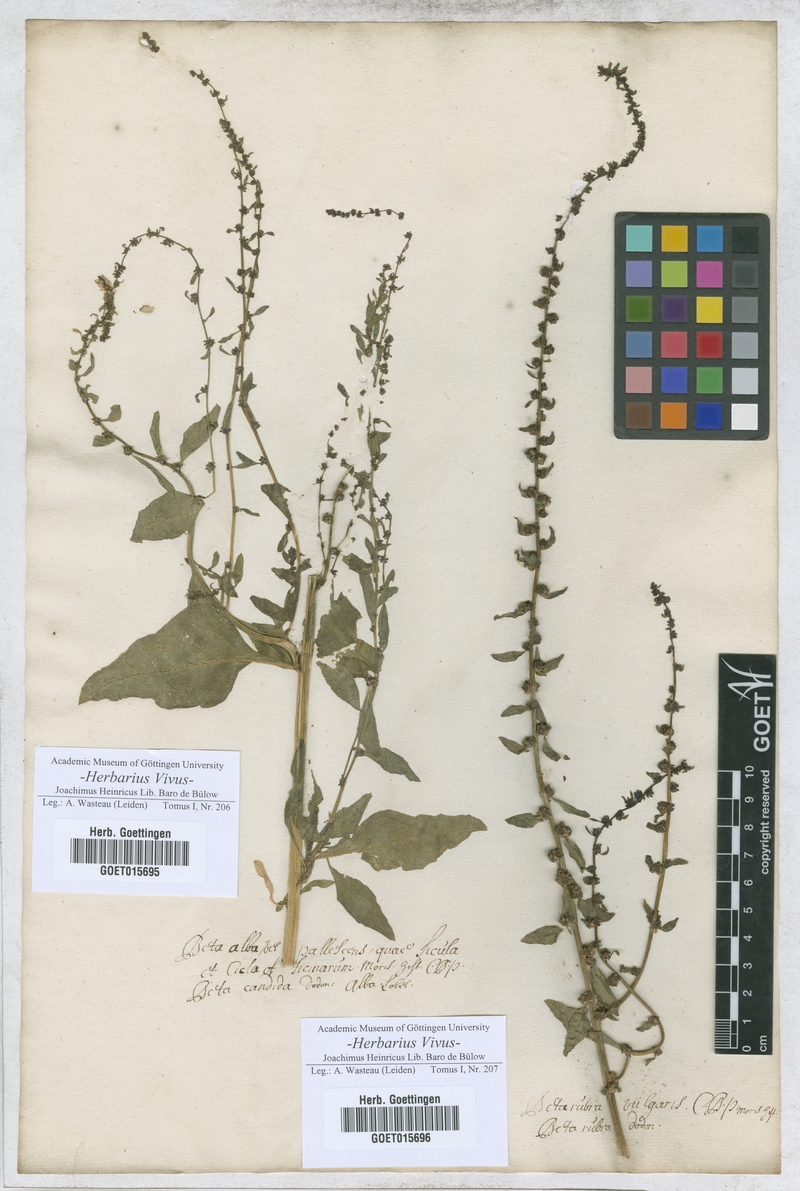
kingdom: Plantae
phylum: Tracheophyta
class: Magnoliopsida
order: Caryophyllales
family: Amaranthaceae
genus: Beta
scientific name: Beta vulgaris
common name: Beet
